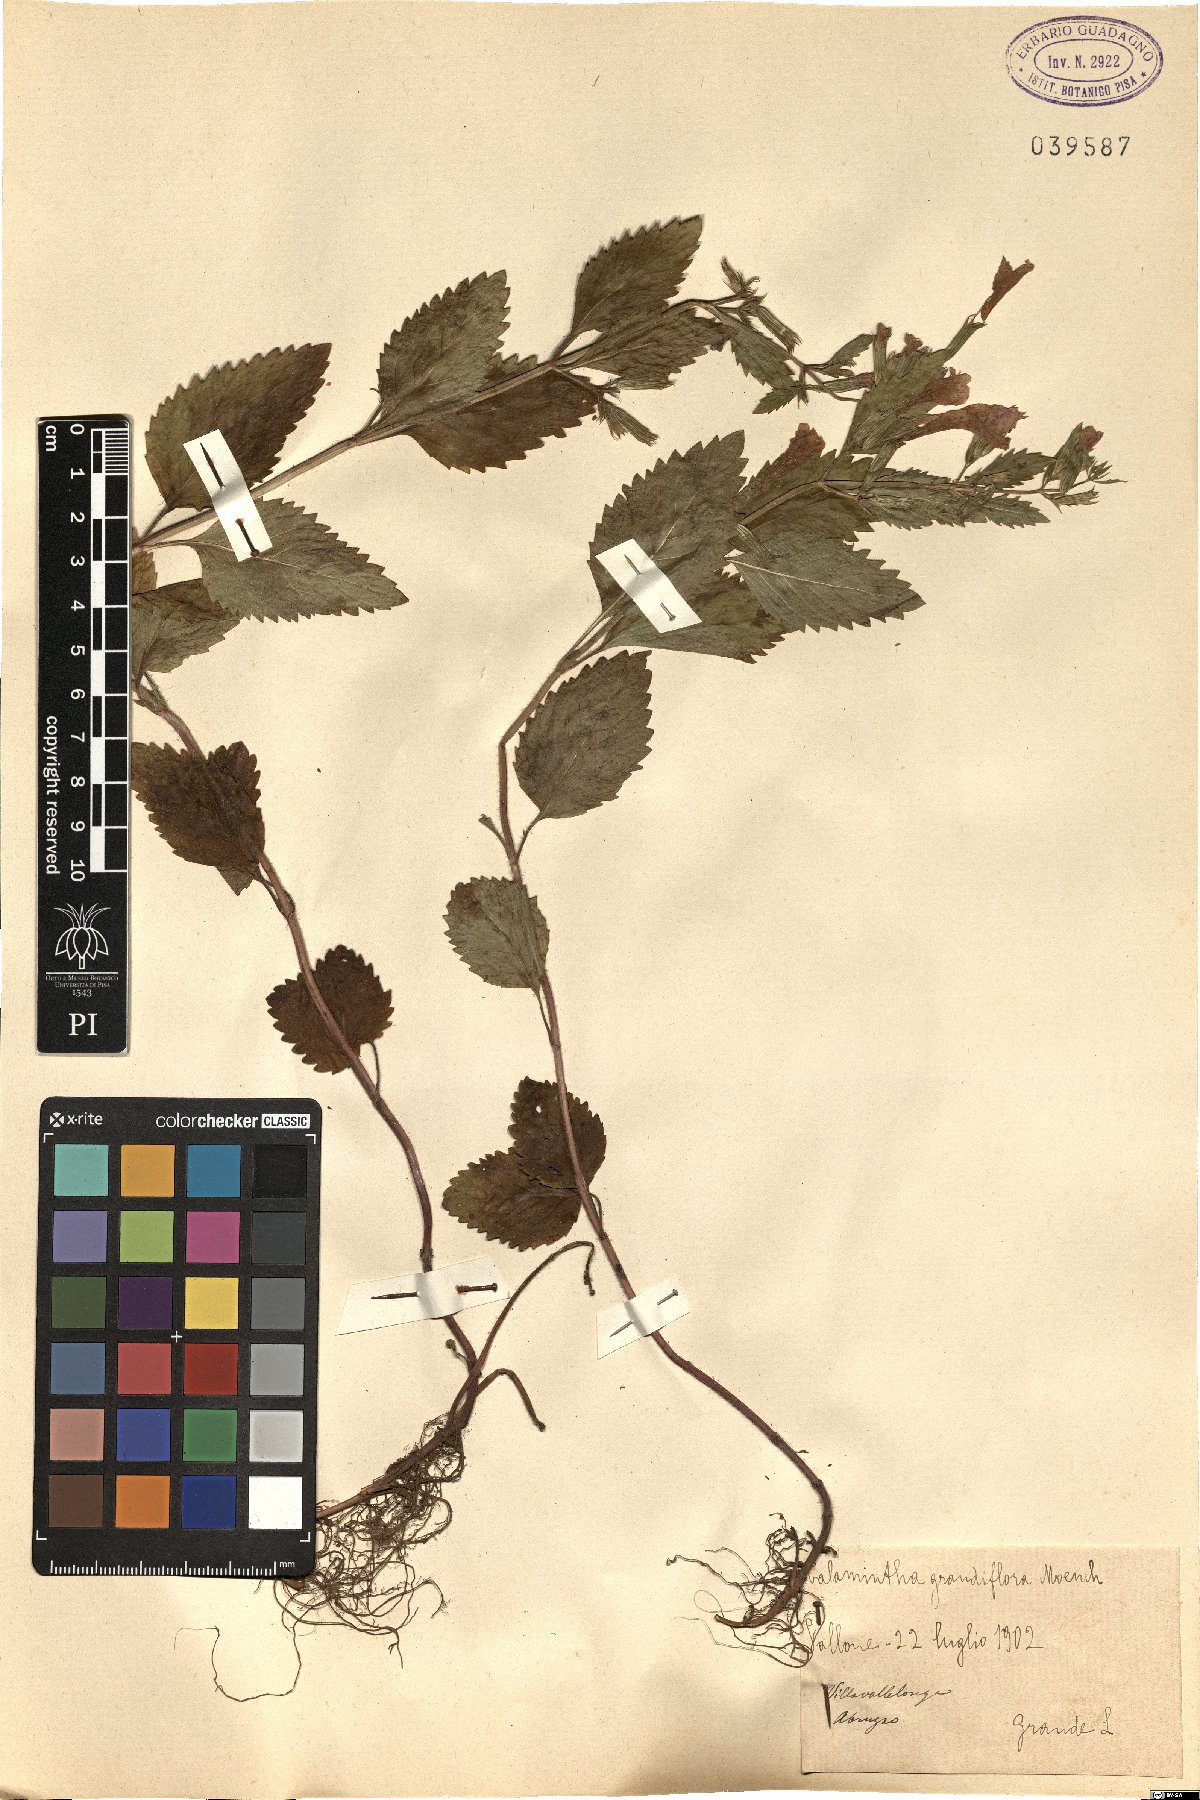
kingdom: Plantae
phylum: Tracheophyta
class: Magnoliopsida
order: Lamiales
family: Lamiaceae
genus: Clinopodium
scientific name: Clinopodium grandiflorum
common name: Greater calamint
